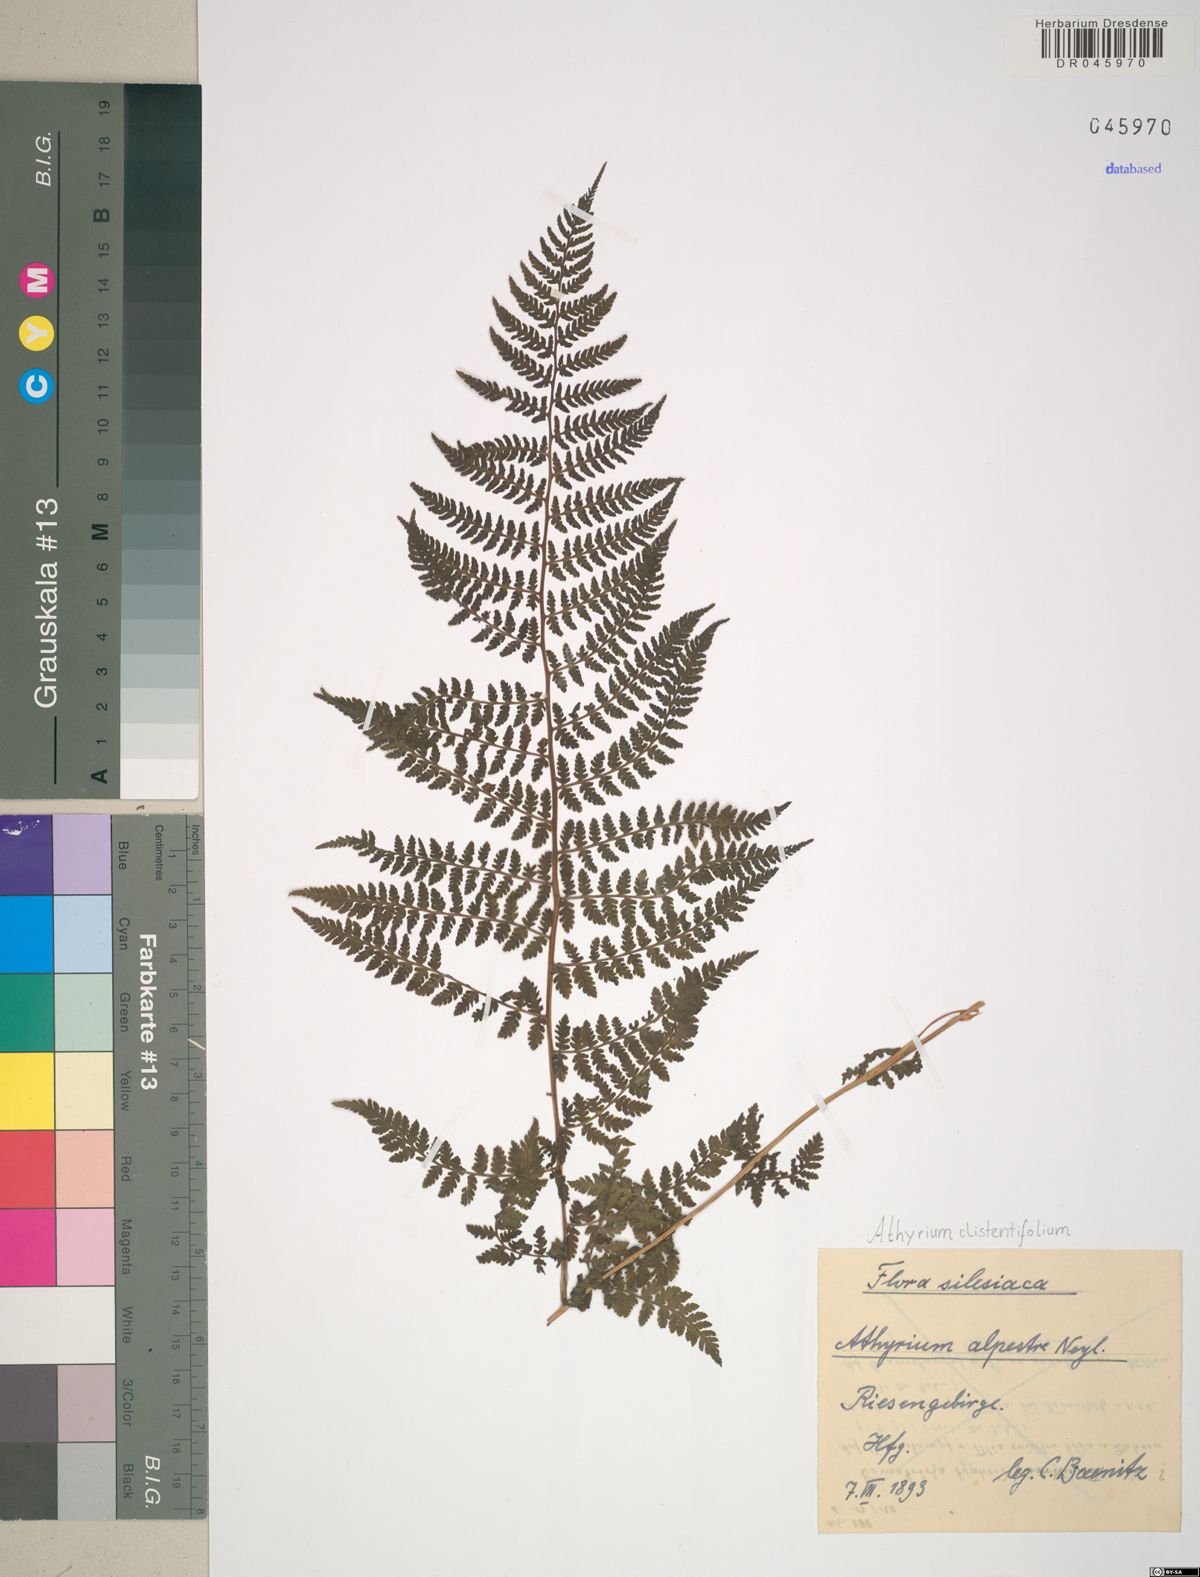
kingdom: Plantae
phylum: Tracheophyta
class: Polypodiopsida
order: Polypodiales
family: Athyriaceae
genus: Pseudathyrium
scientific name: Pseudathyrium alpestre
